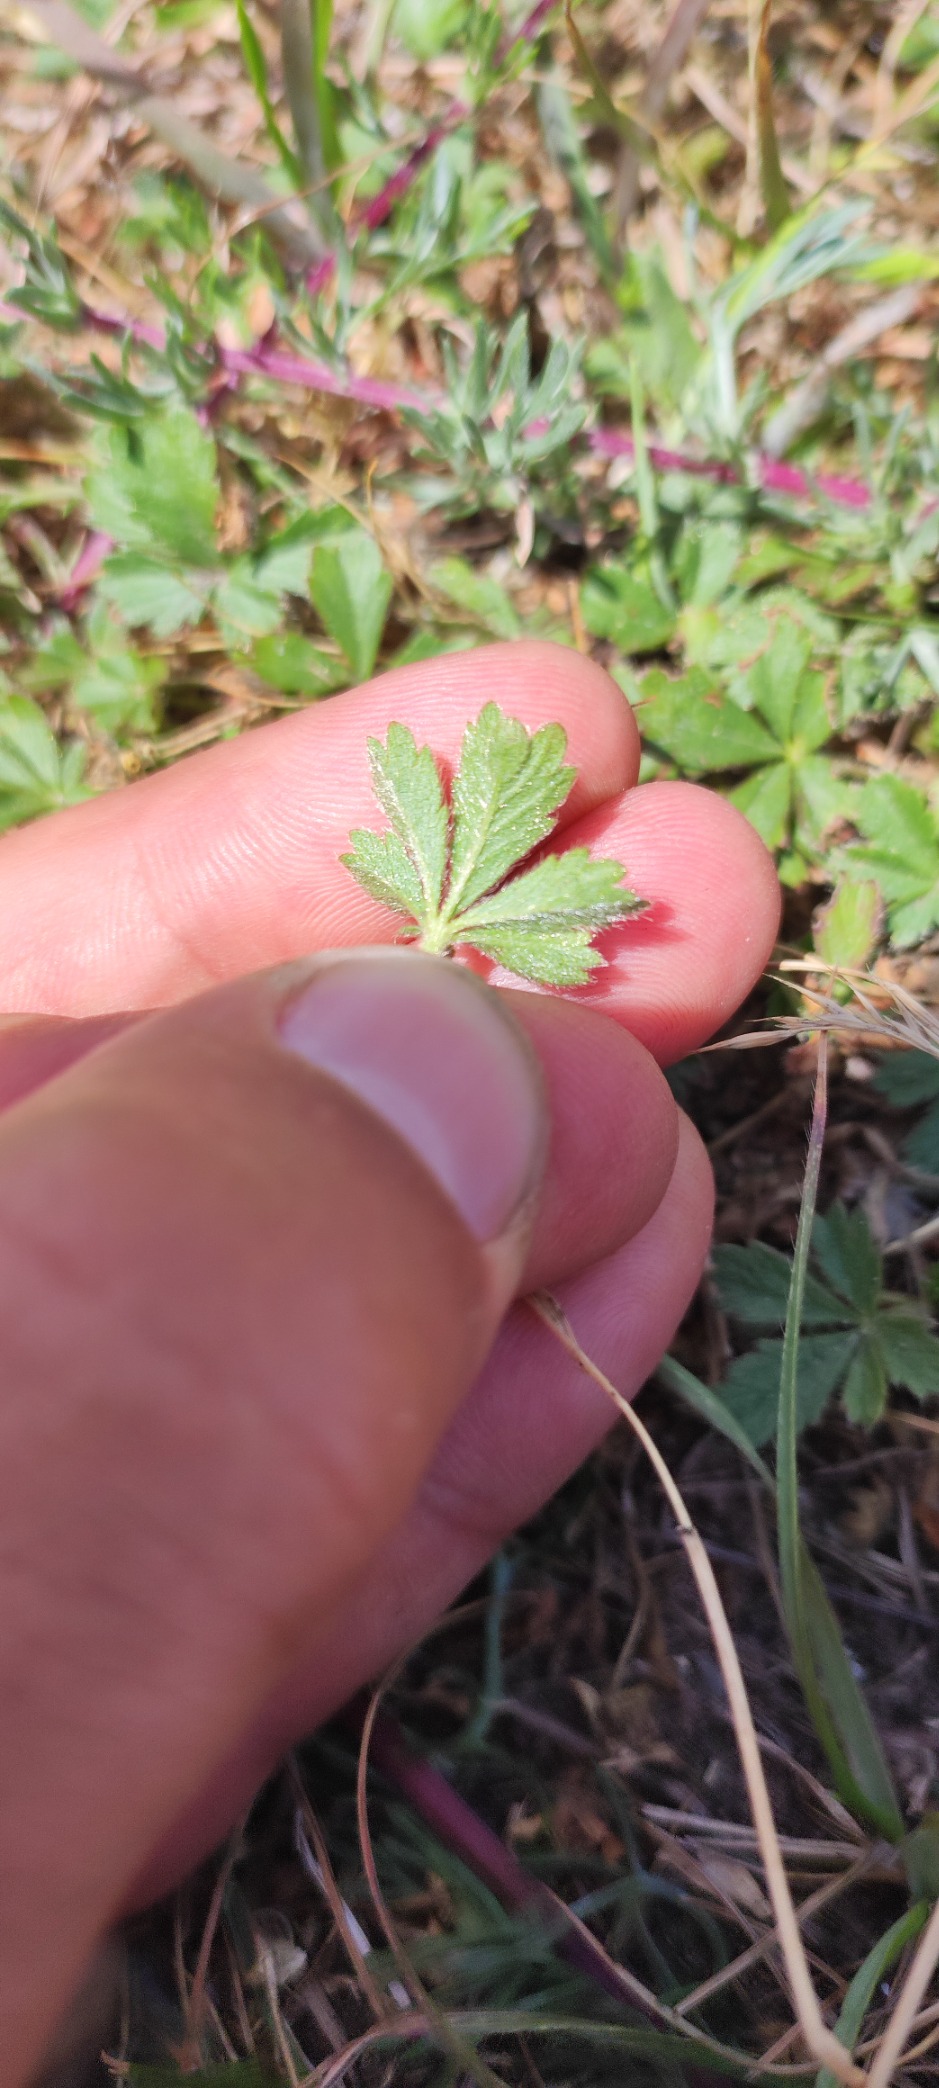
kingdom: Plantae
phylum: Tracheophyta
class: Magnoliopsida
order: Rosales
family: Rosaceae
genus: Potentilla
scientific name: Potentilla verna
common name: Vår-potentil
